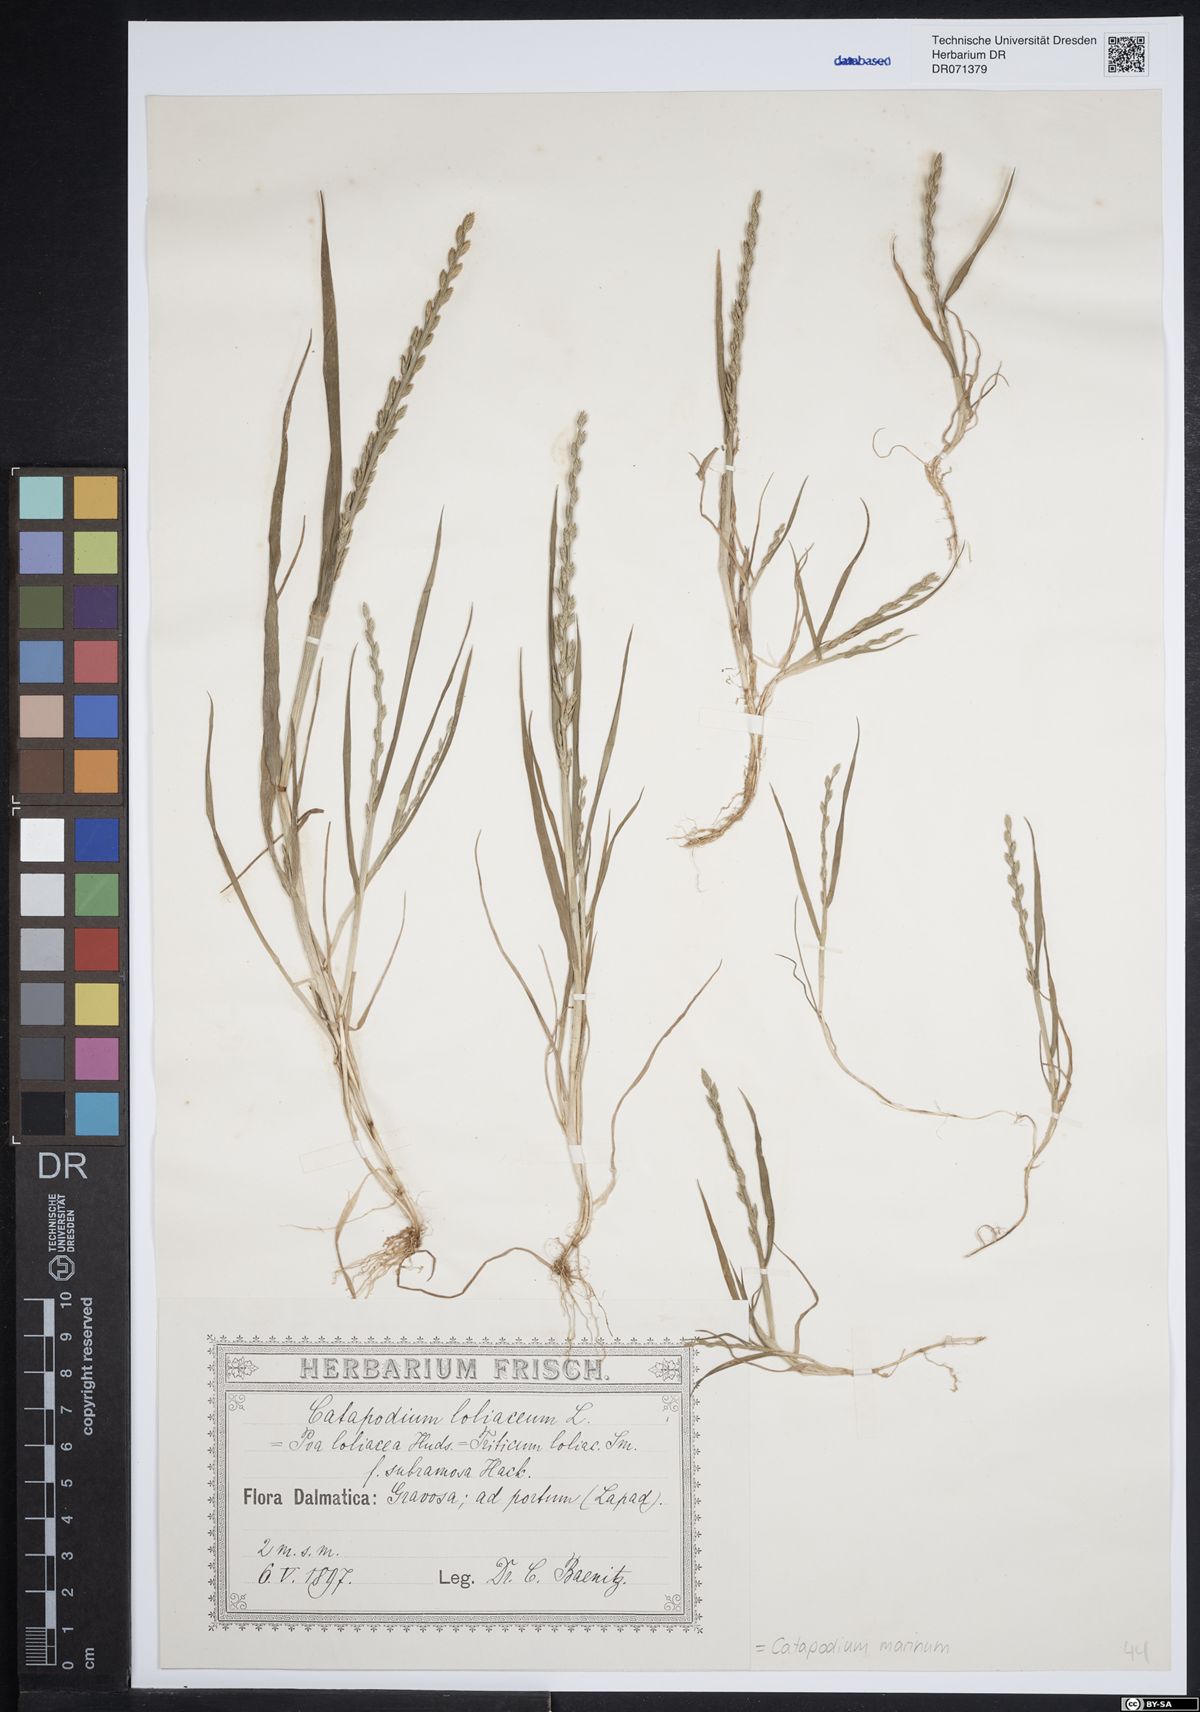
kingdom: Plantae
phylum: Tracheophyta
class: Liliopsida
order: Poales
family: Poaceae
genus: Catapodium
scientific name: Catapodium marinum
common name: Sea fern-grass
